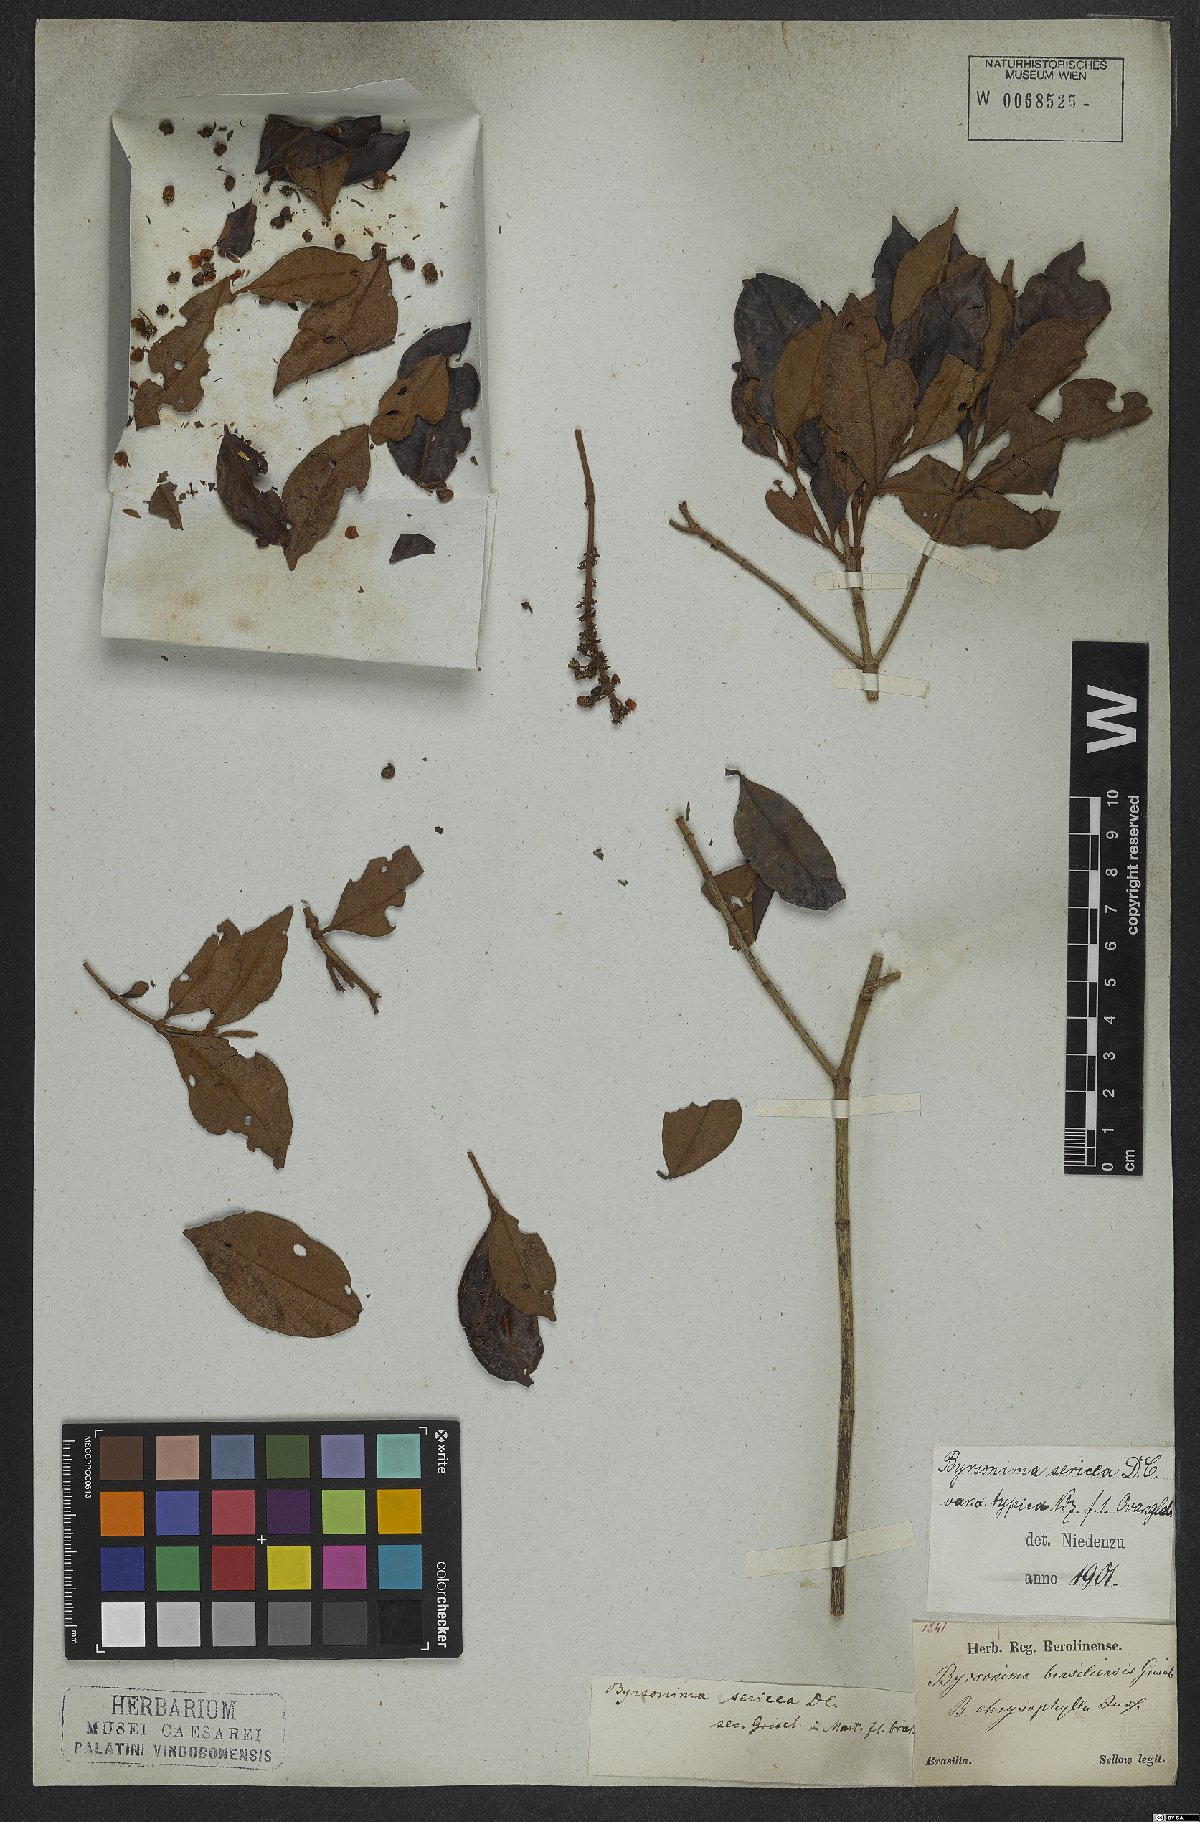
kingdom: Plantae
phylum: Tracheophyta
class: Magnoliopsida
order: Malpighiales
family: Malpighiaceae
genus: Byrsonima
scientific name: Byrsonima sericea
